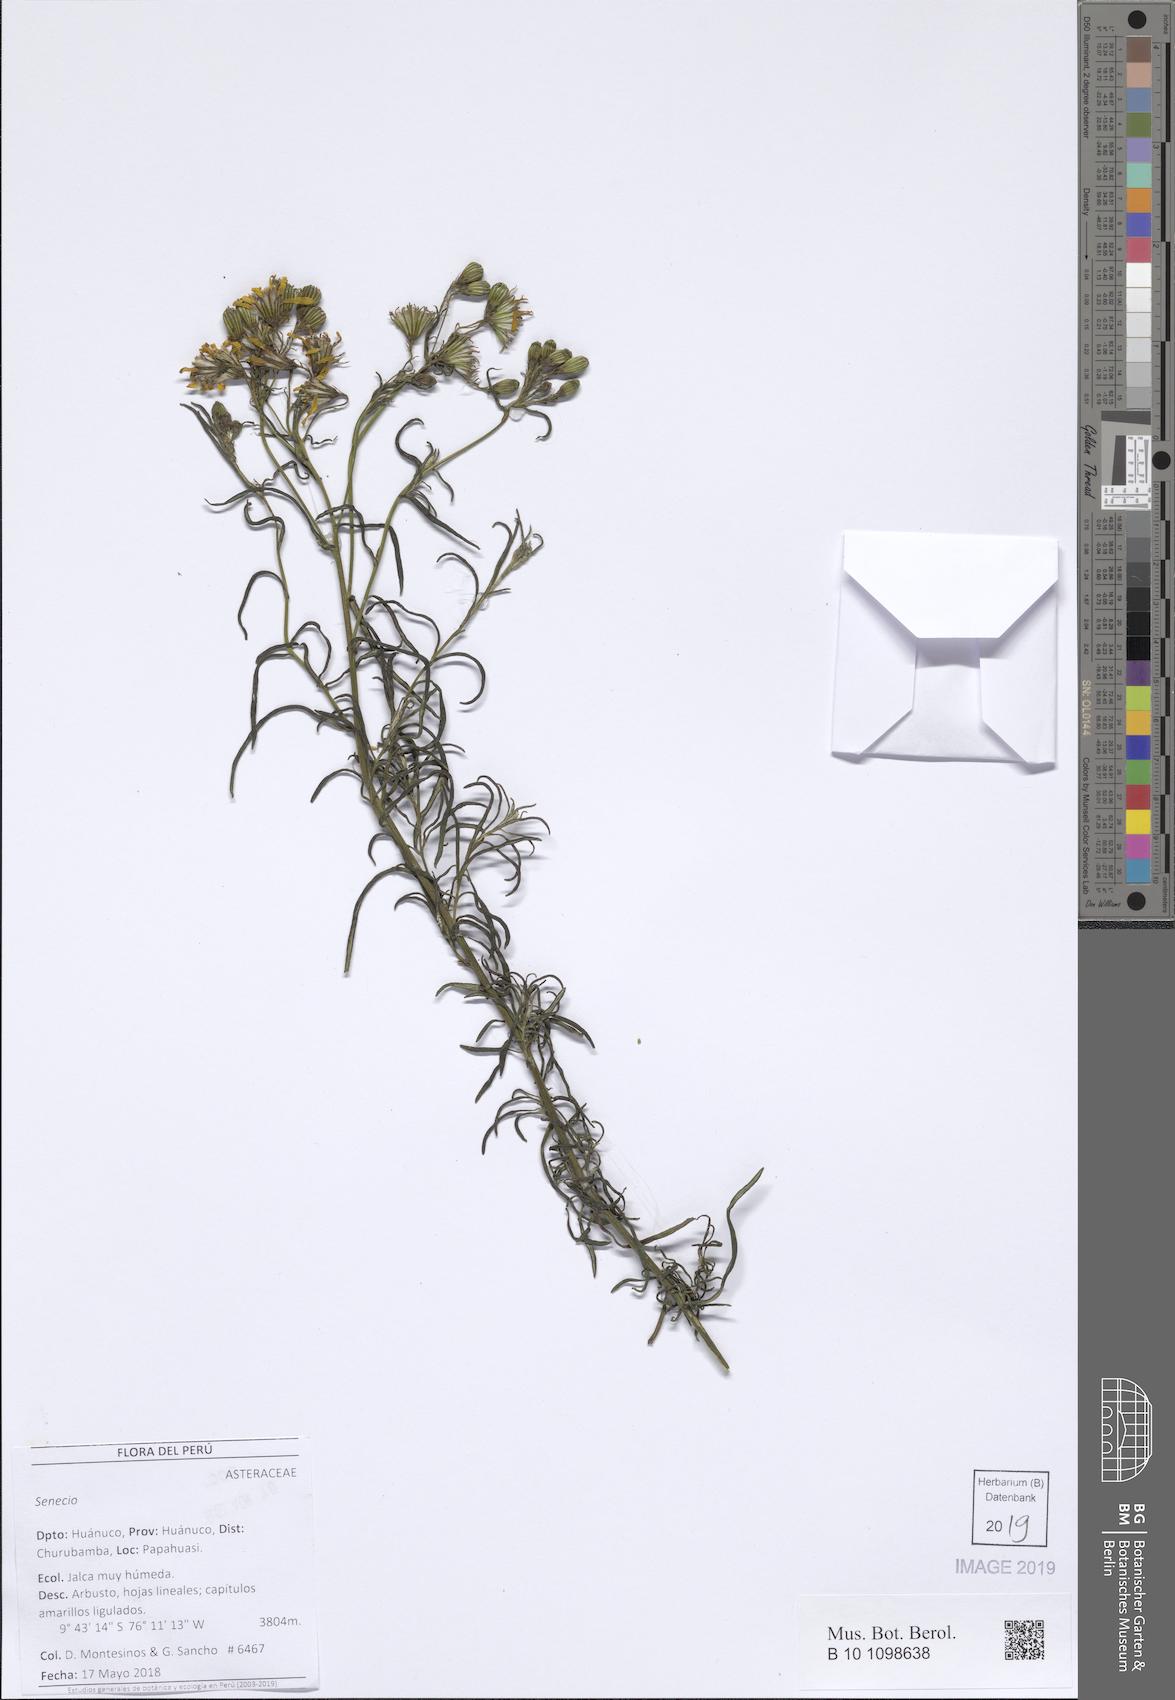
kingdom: Plantae
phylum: Tracheophyta
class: Magnoliopsida
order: Asterales
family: Asteraceae
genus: Senecio
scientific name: Senecio melanocalyx
